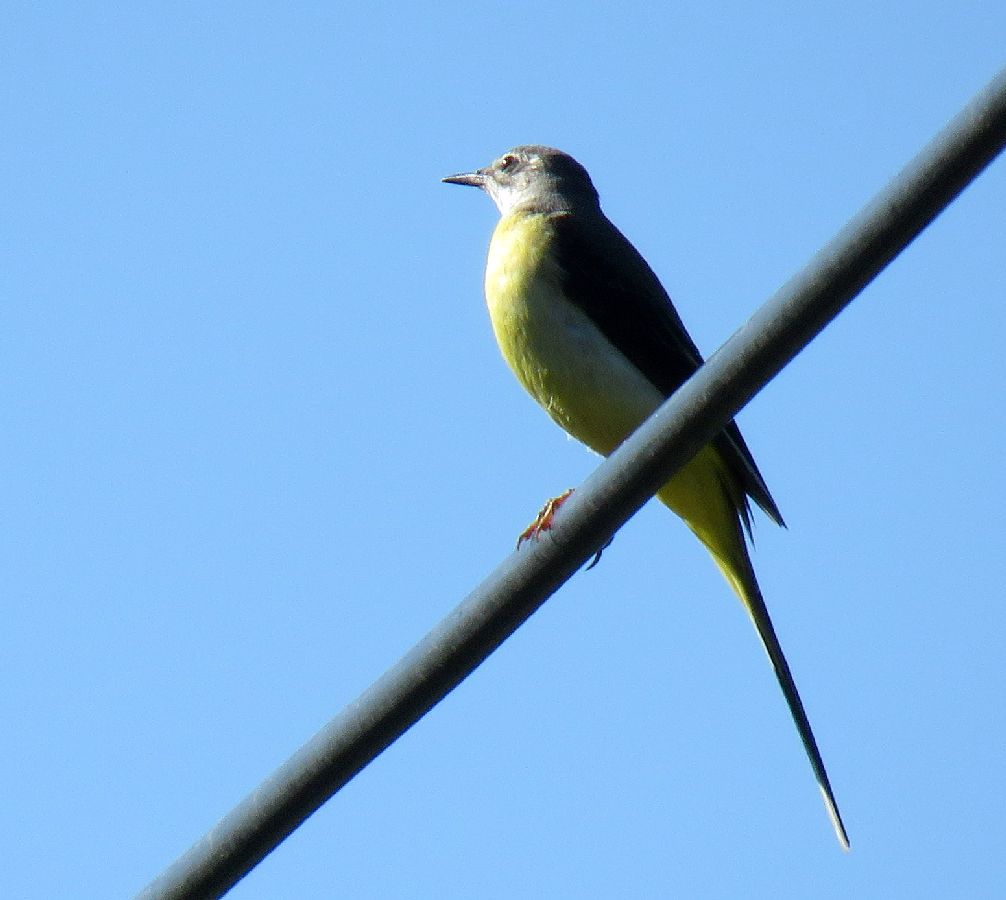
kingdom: Animalia
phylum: Chordata
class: Aves
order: Passeriformes
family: Motacillidae
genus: Motacilla
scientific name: Motacilla cinerea
